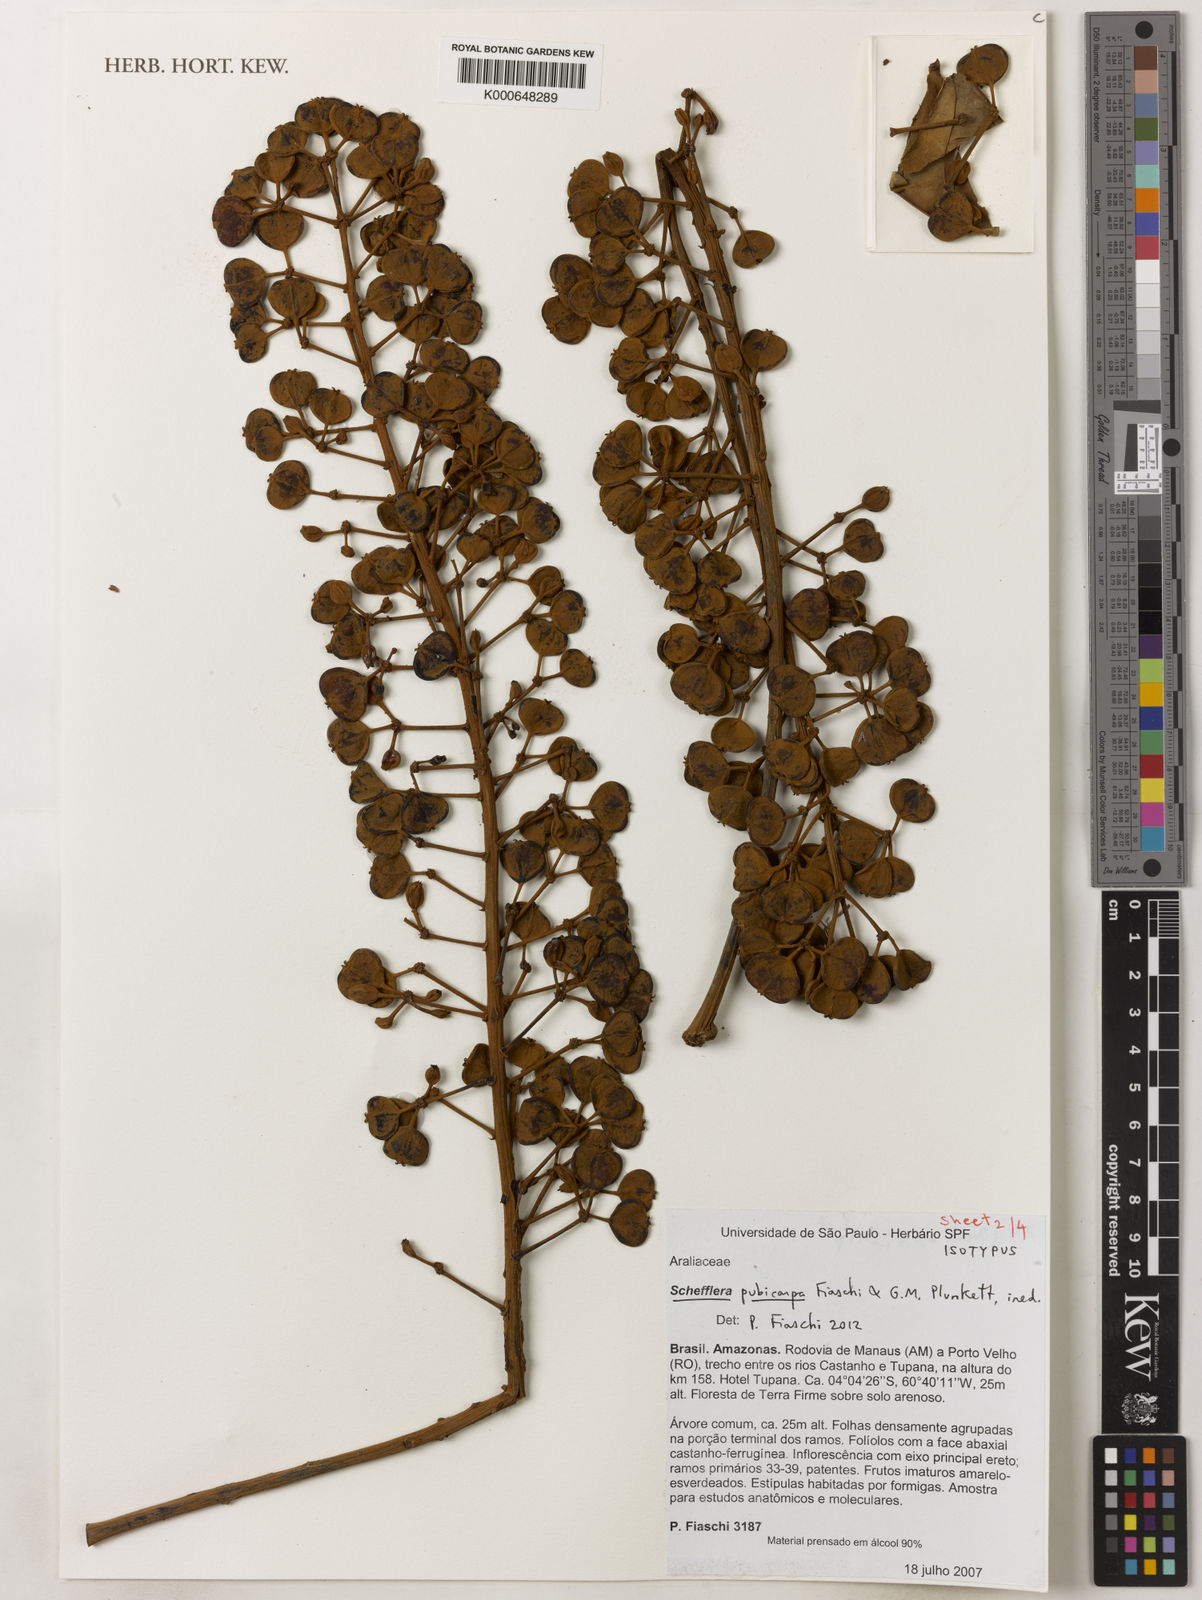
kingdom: Plantae
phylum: Tracheophyta
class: Magnoliopsida
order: Apiales
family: Araliaceae
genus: Didymopanax
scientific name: Didymopanax pubicarpus
